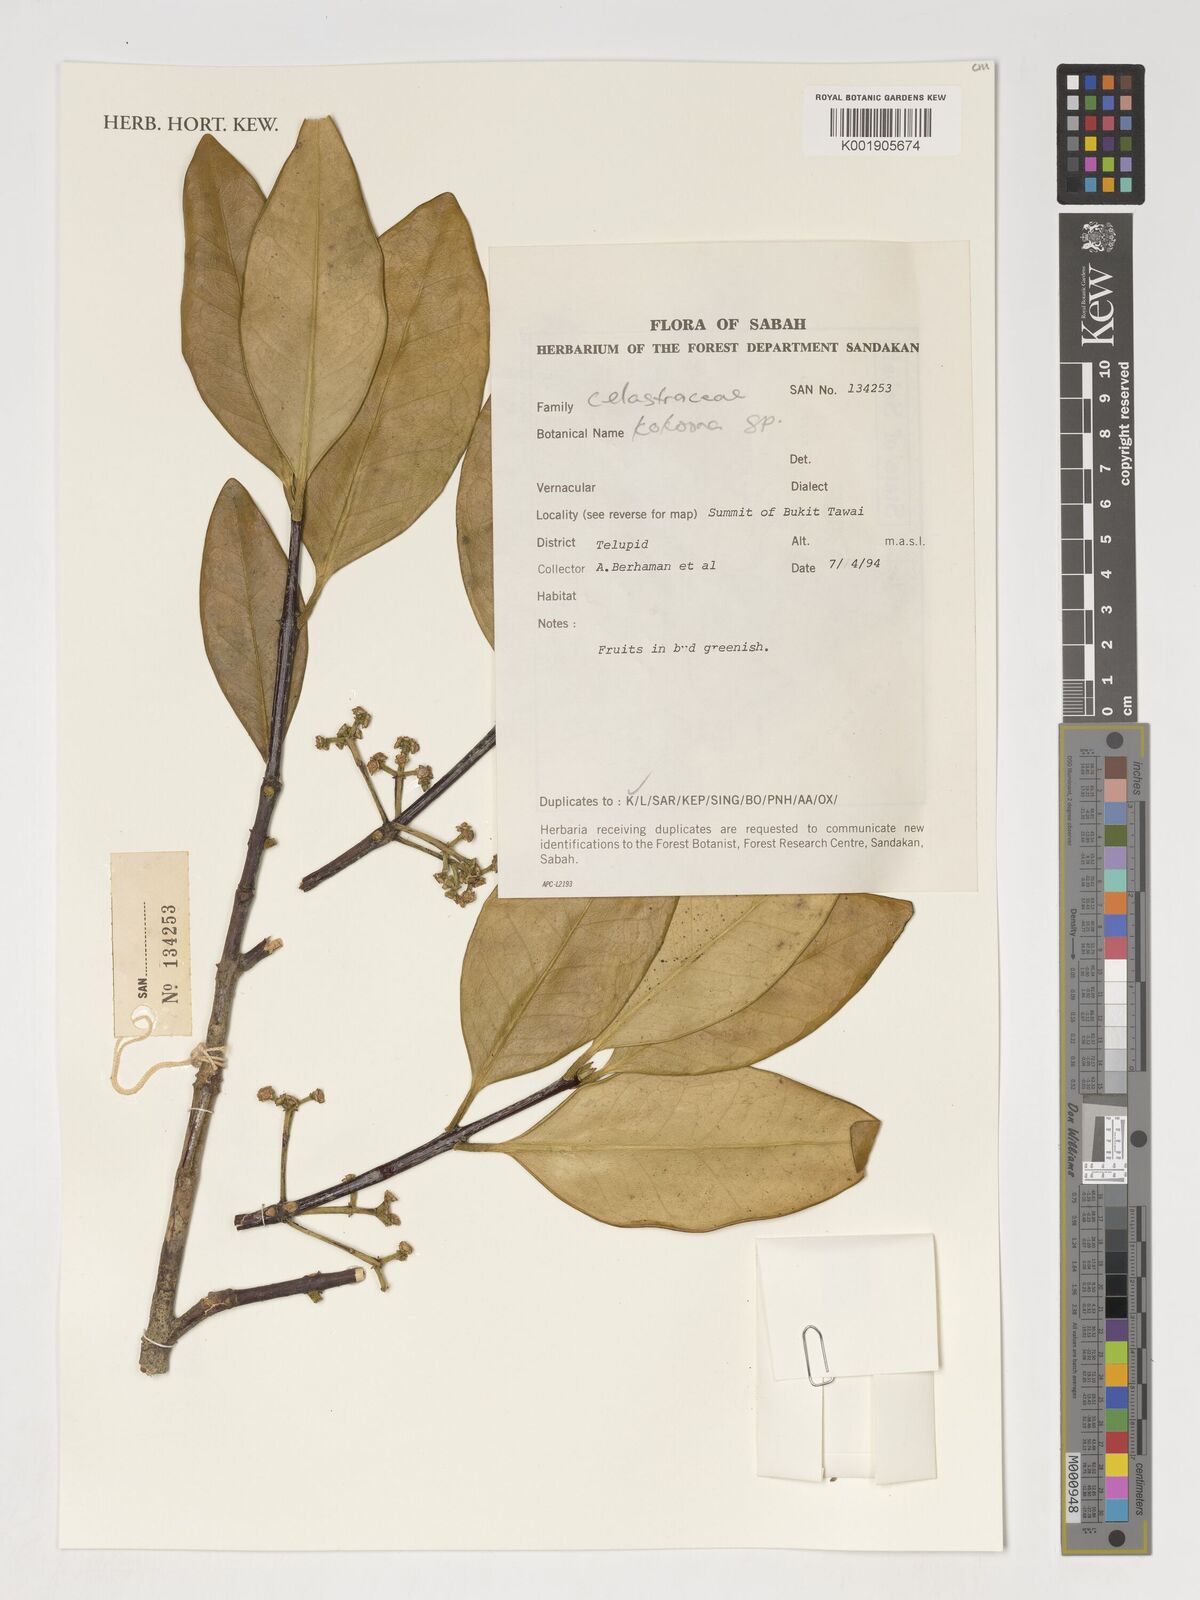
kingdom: Plantae
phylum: Tracheophyta
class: Magnoliopsida
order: Celastrales
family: Celastraceae
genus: Kokoona
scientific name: Kokoona
